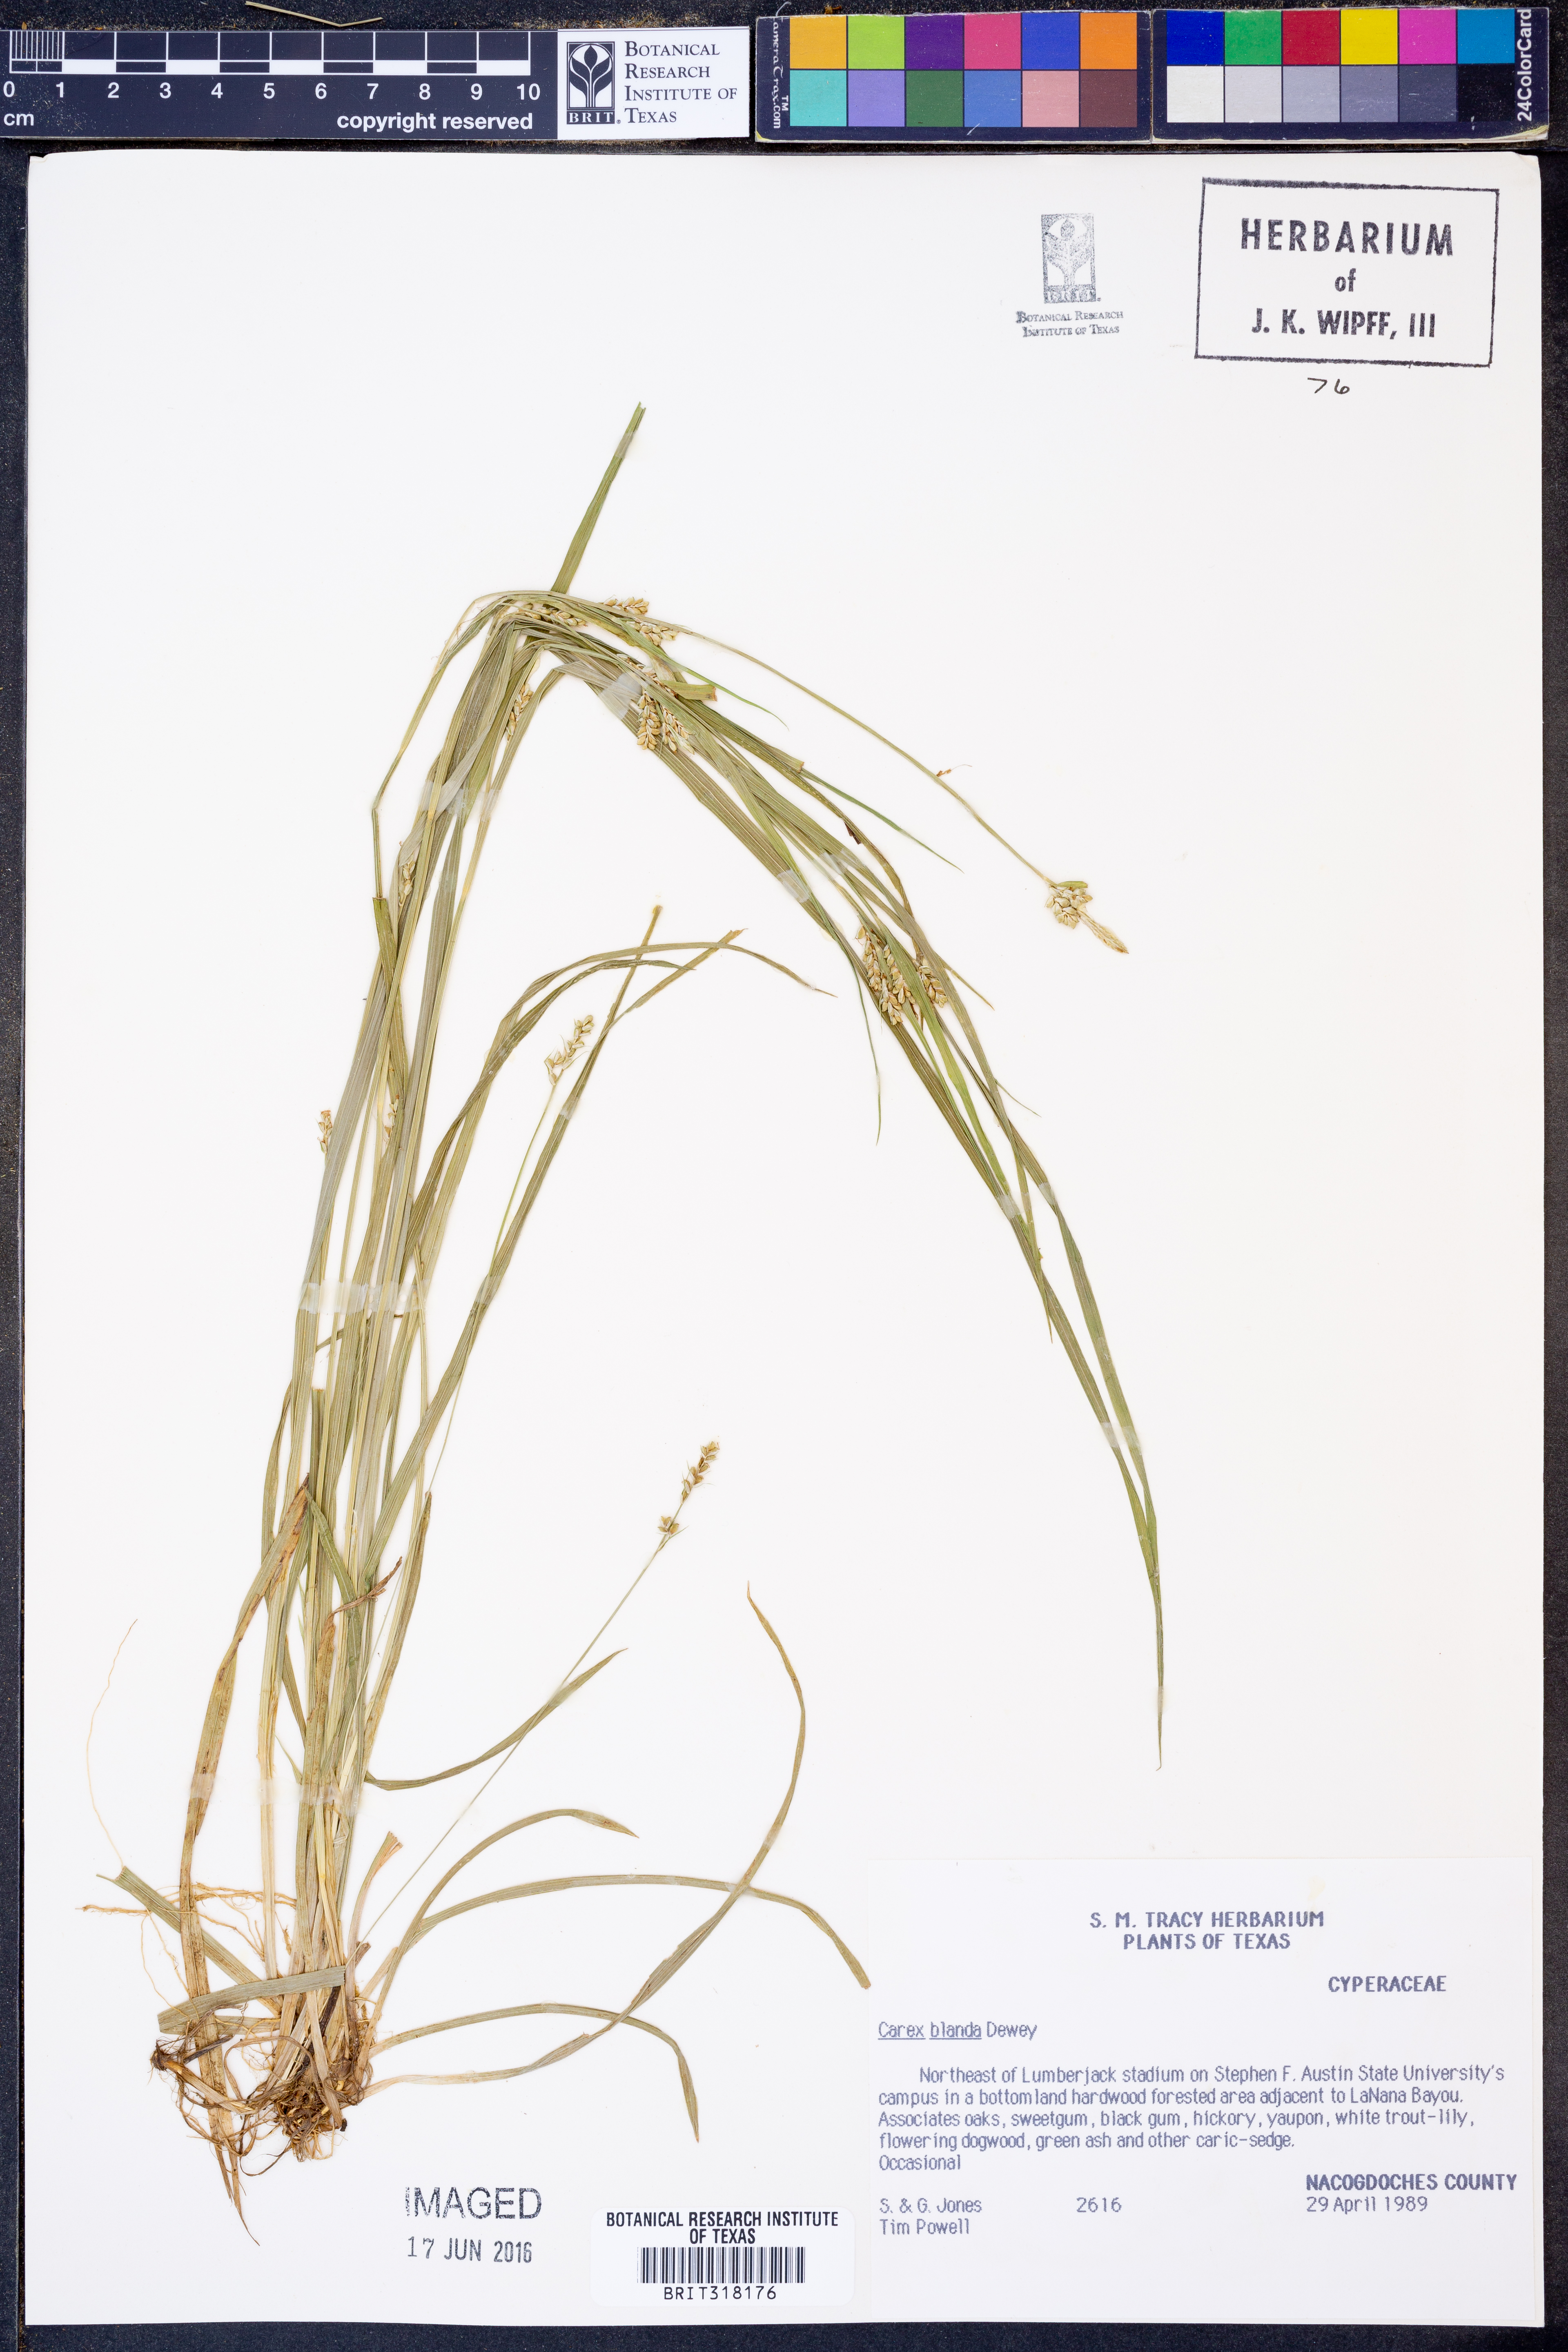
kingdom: Plantae
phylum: Tracheophyta
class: Liliopsida
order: Poales
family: Cyperaceae
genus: Carex
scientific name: Carex blanda
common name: Bland sedge
